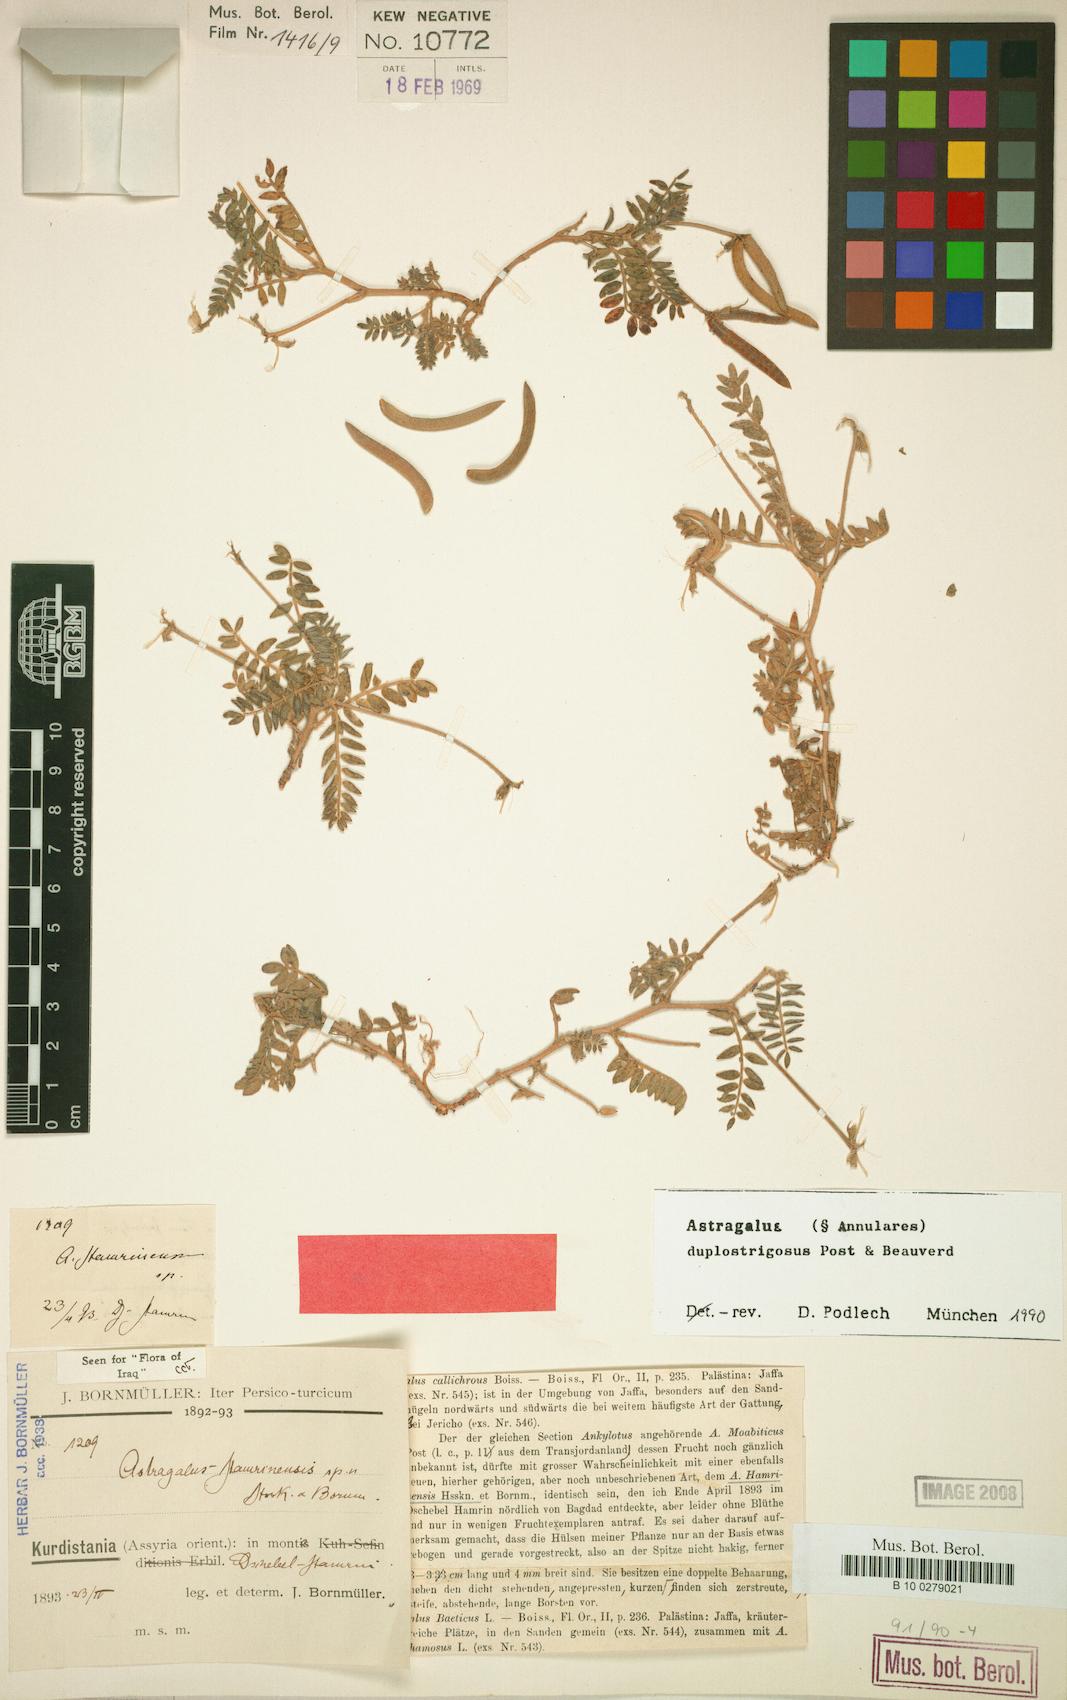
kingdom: Plantae
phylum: Tracheophyta
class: Magnoliopsida
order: Fabales
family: Fabaceae
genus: Astragalus
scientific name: Astragalus duplostrigosus
